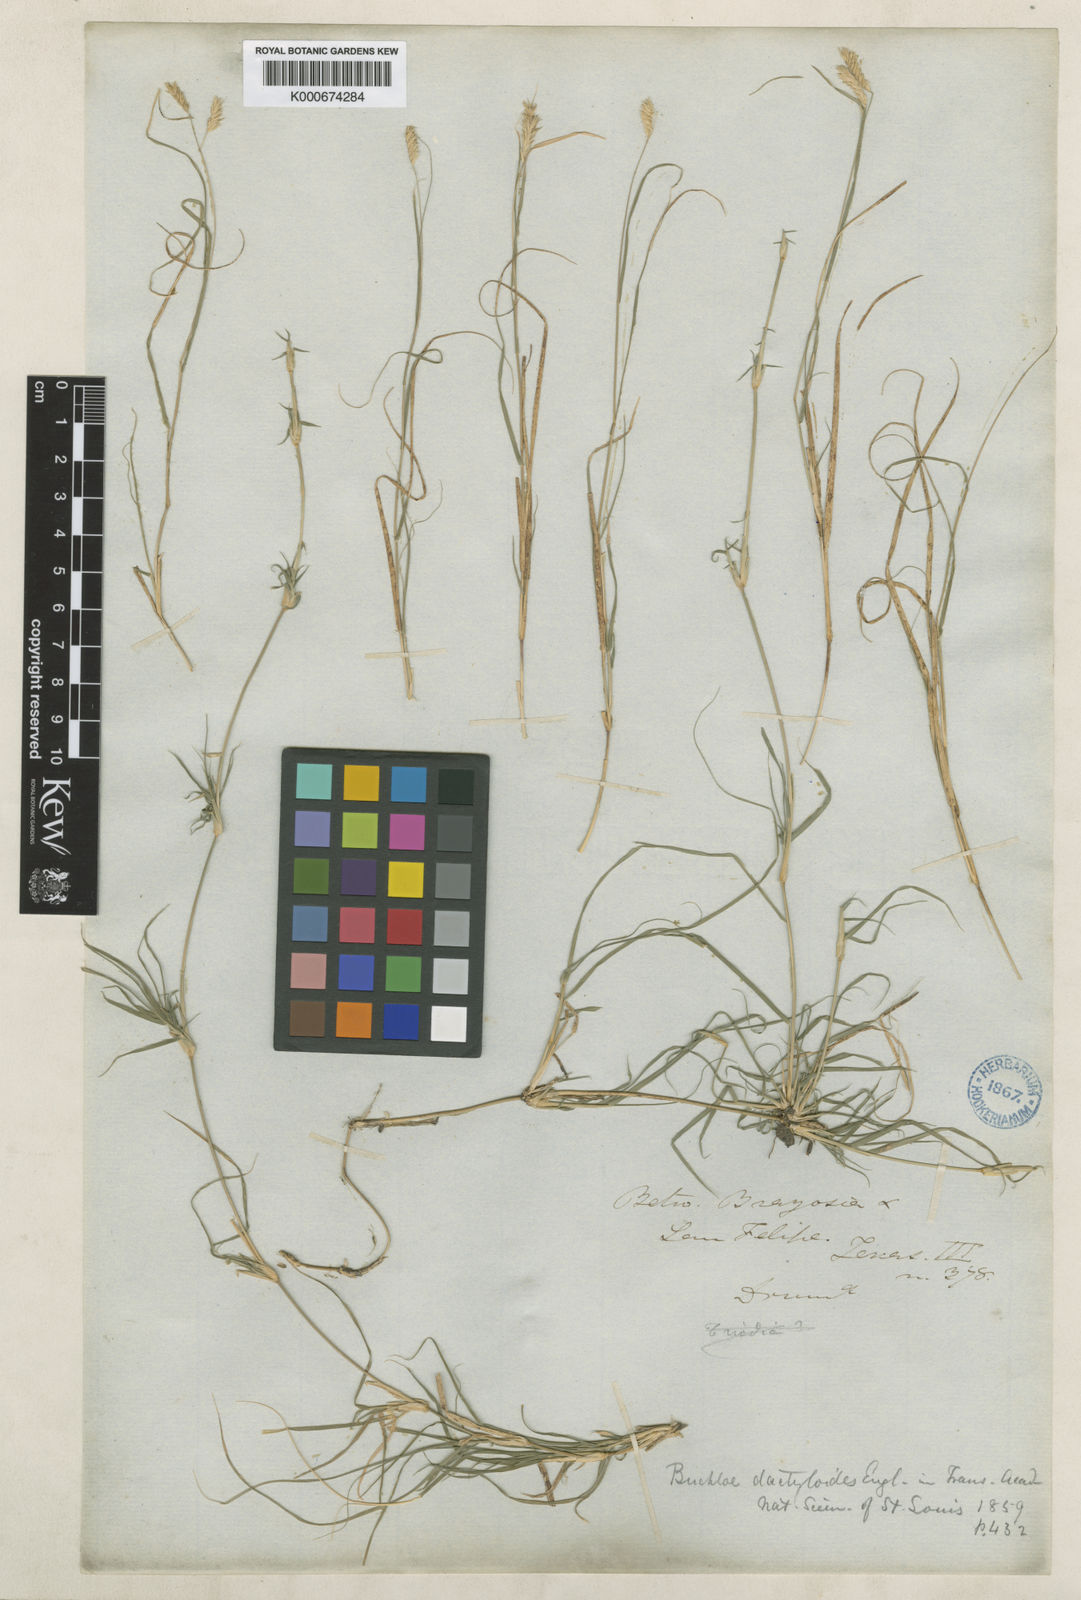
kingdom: Plantae
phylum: Tracheophyta
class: Liliopsida
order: Poales
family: Poaceae
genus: Bouteloua
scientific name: Bouteloua dactyloides
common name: Buffalo grass
